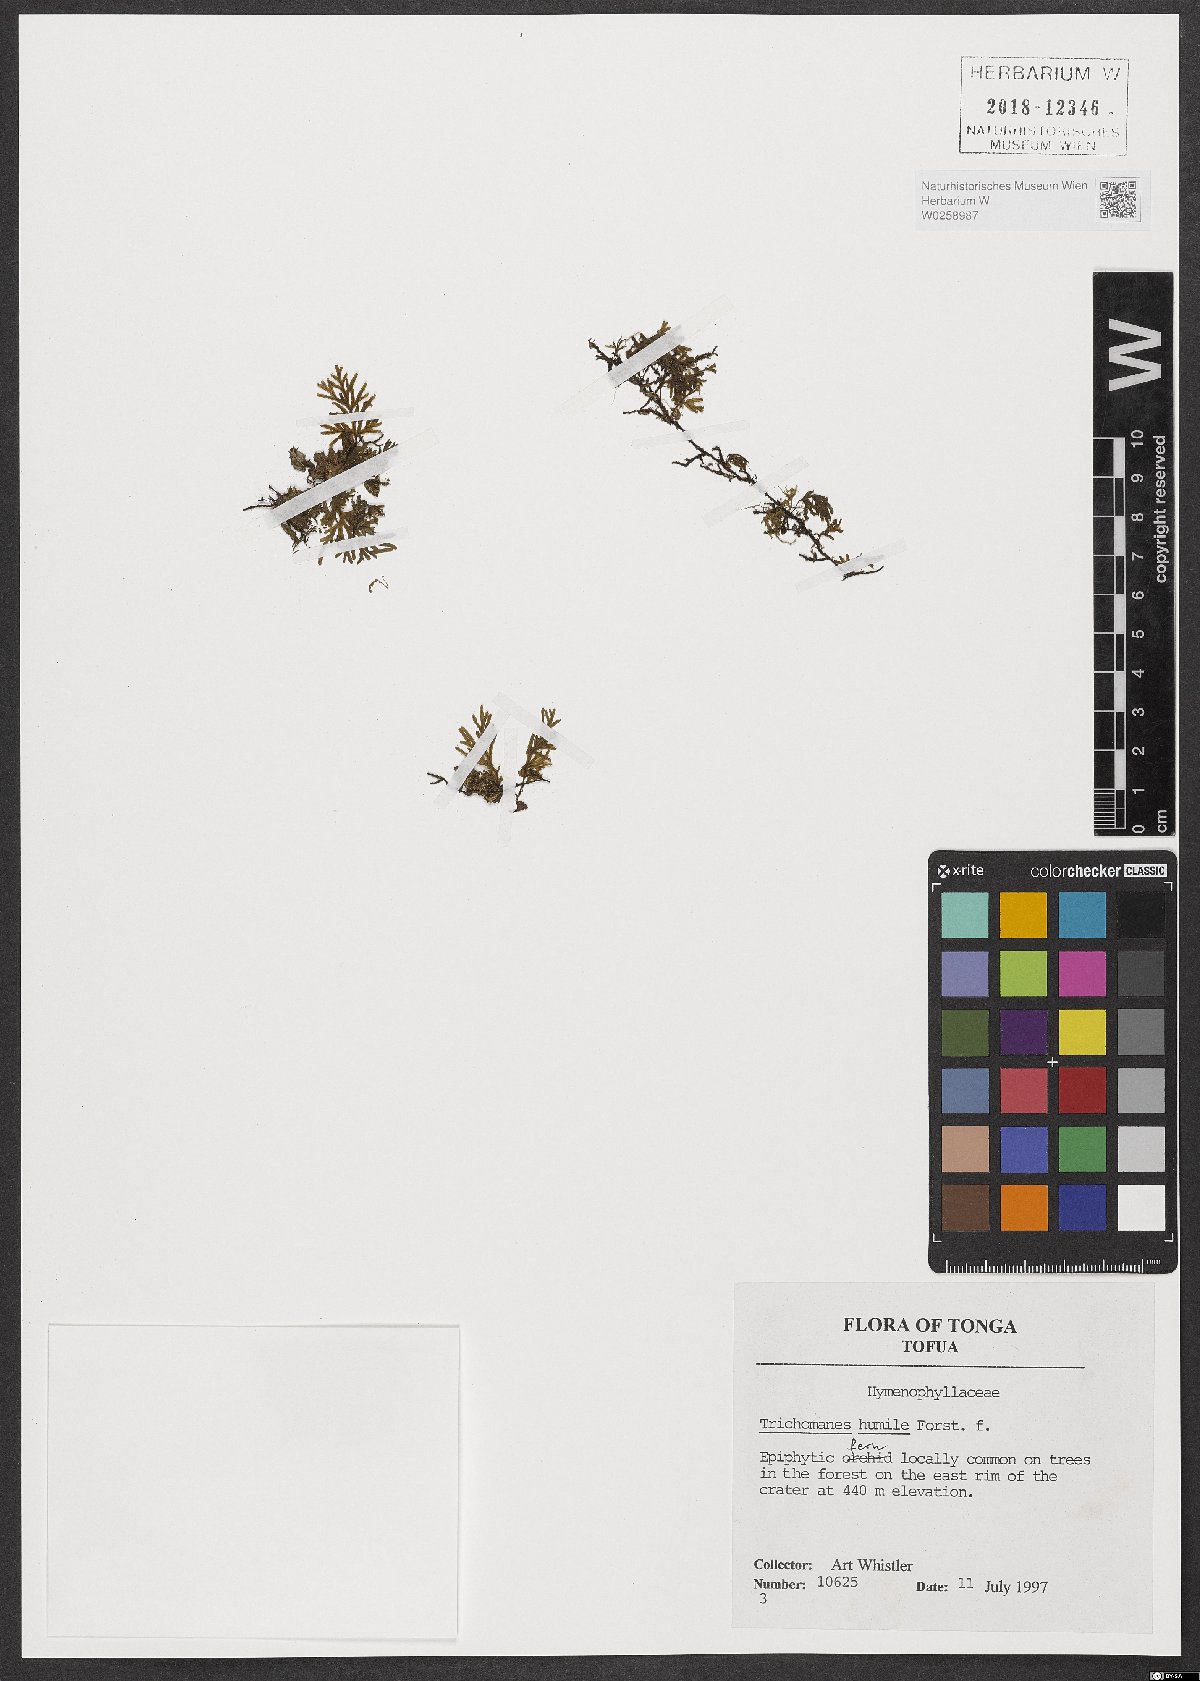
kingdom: Plantae
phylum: Tracheophyta
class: Polypodiopsida
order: Hymenophyllales
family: Hymenophyllaceae
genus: Crepidomanes
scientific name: Crepidomanes humile
